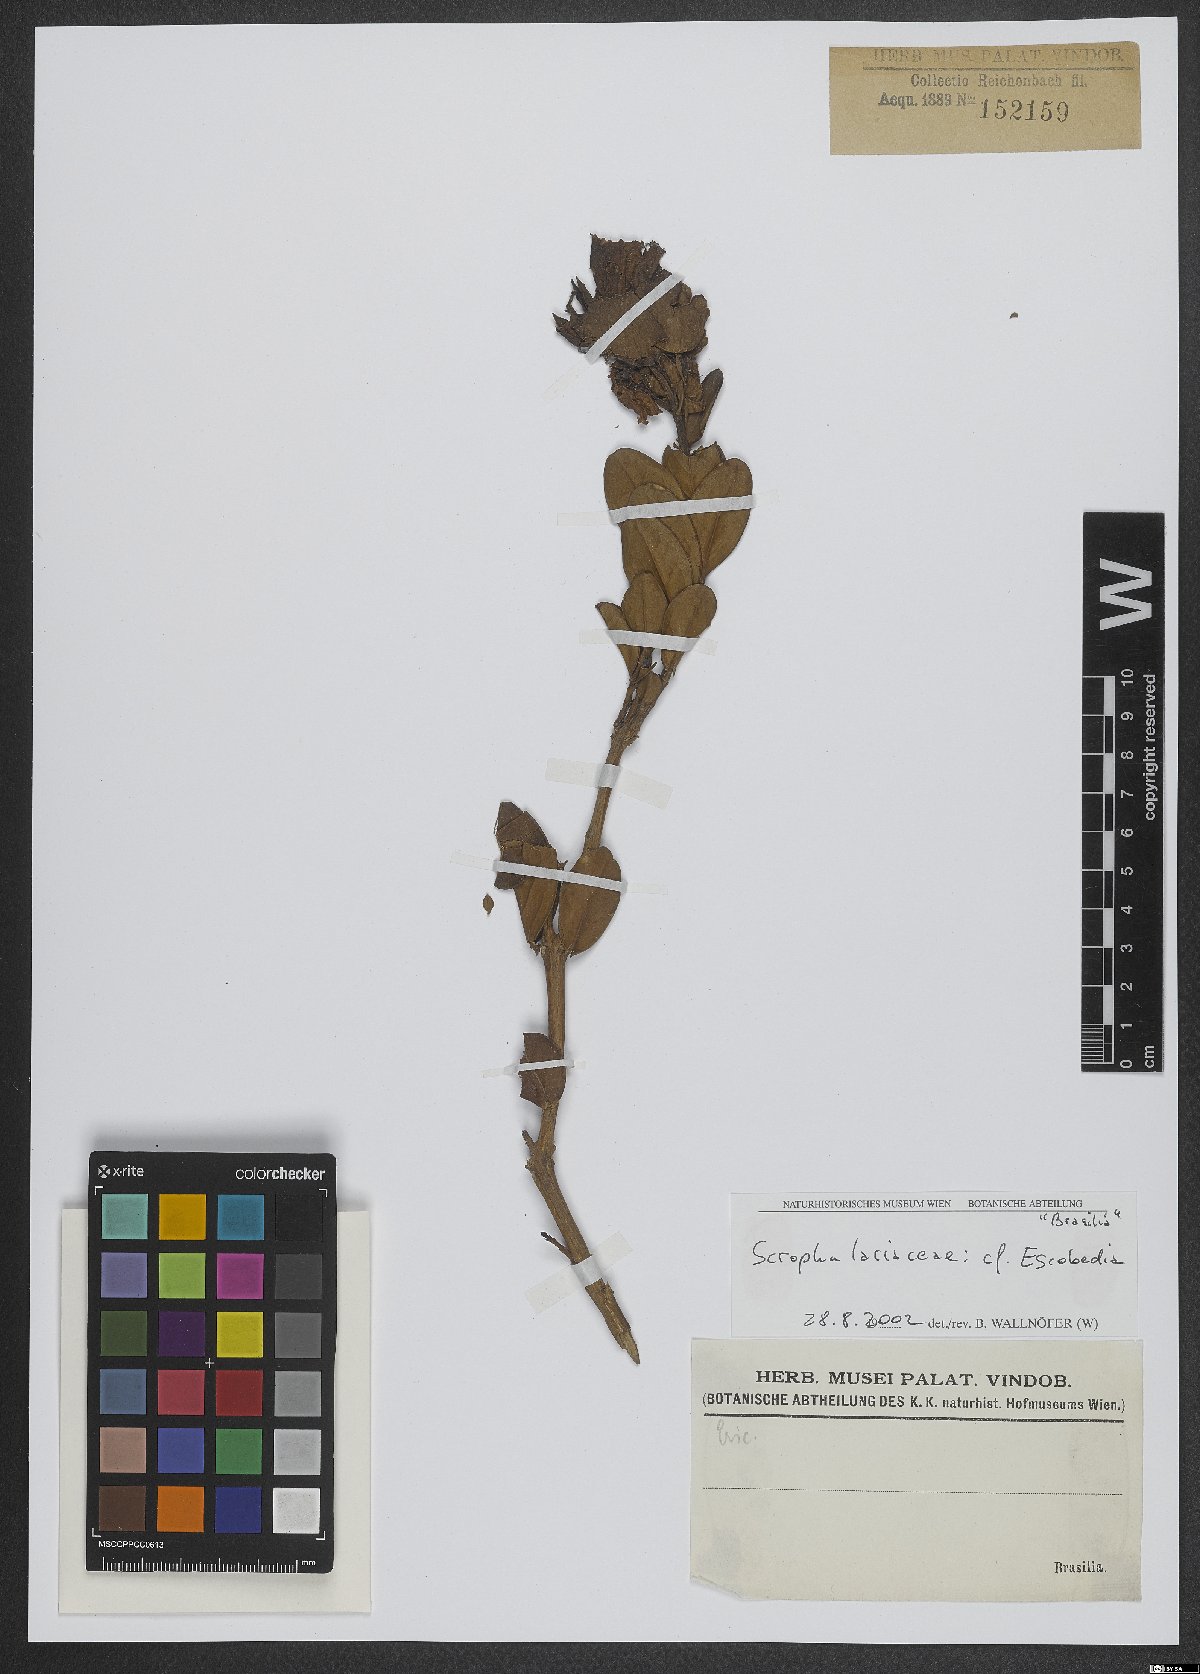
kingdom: Plantae
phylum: Tracheophyta
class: Magnoliopsida
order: Lamiales
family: Orobanchaceae
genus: Escobedia
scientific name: Escobedia
